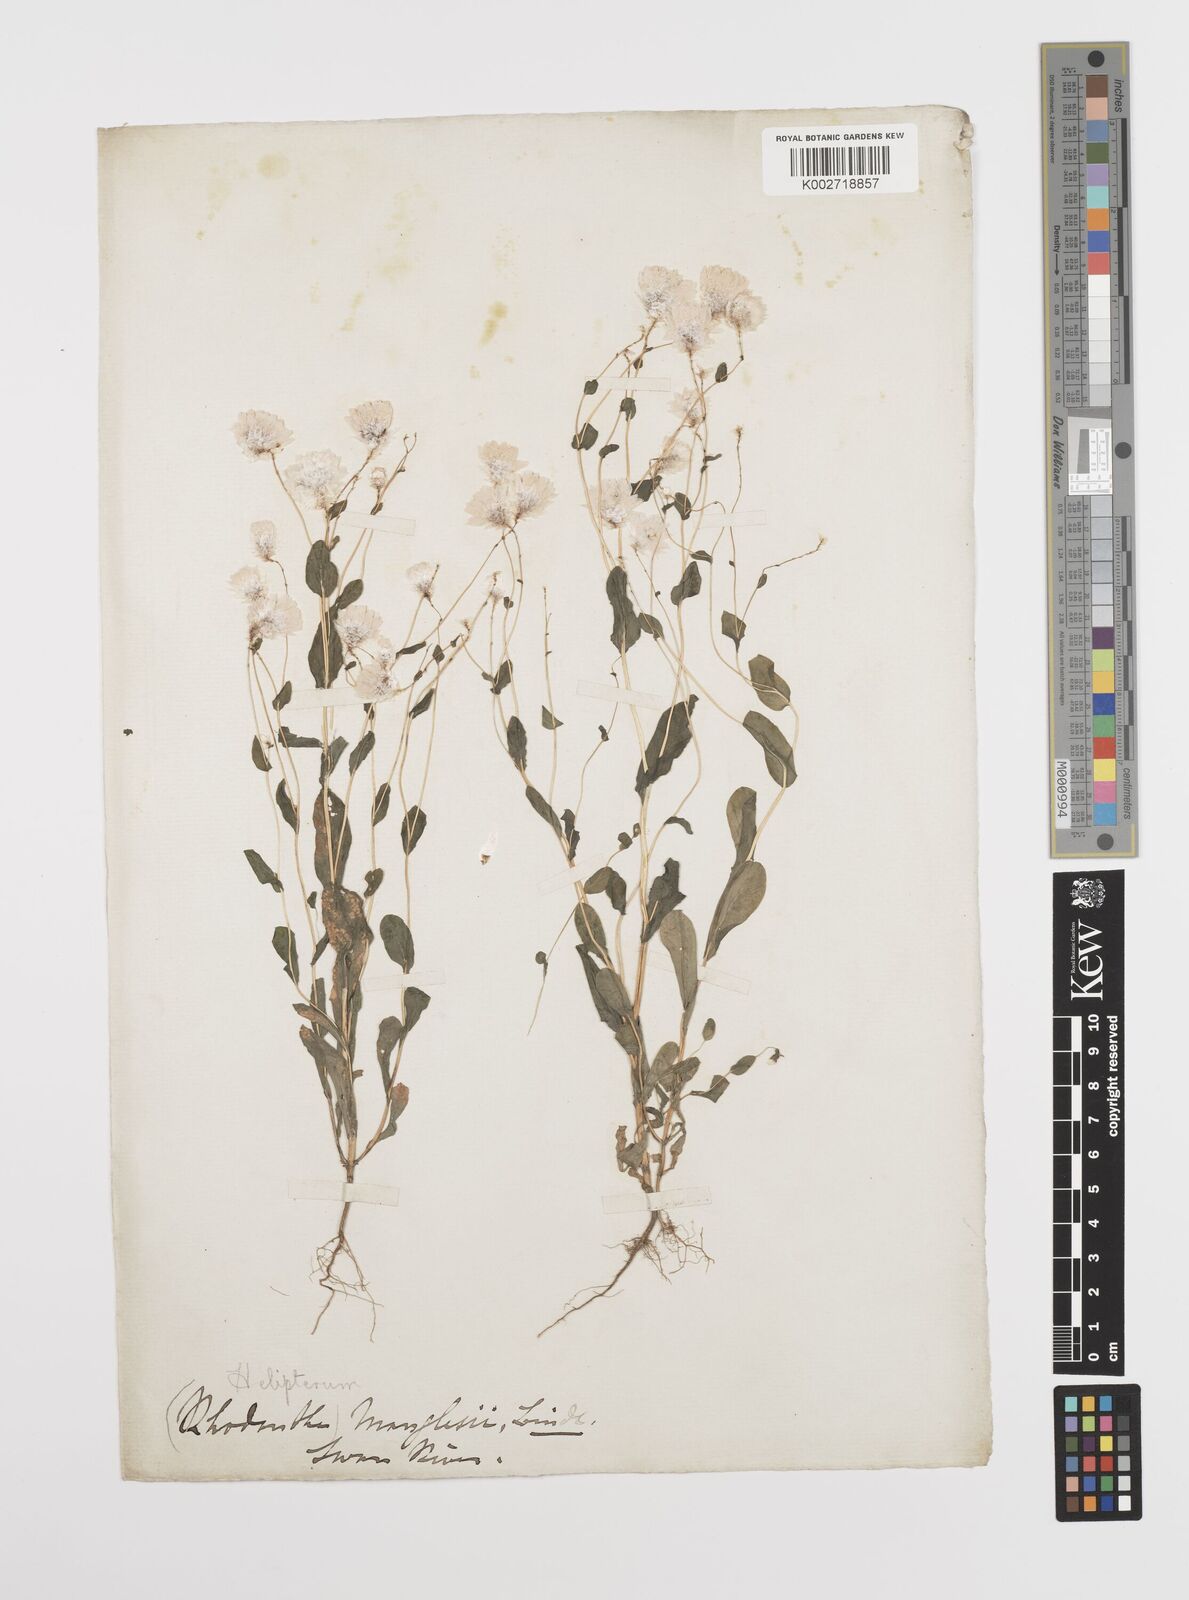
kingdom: Plantae
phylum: Tracheophyta
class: Magnoliopsida
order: Asterales
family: Asteraceae
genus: Rhodanthe
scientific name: Rhodanthe manglesii
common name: Pink sunray
